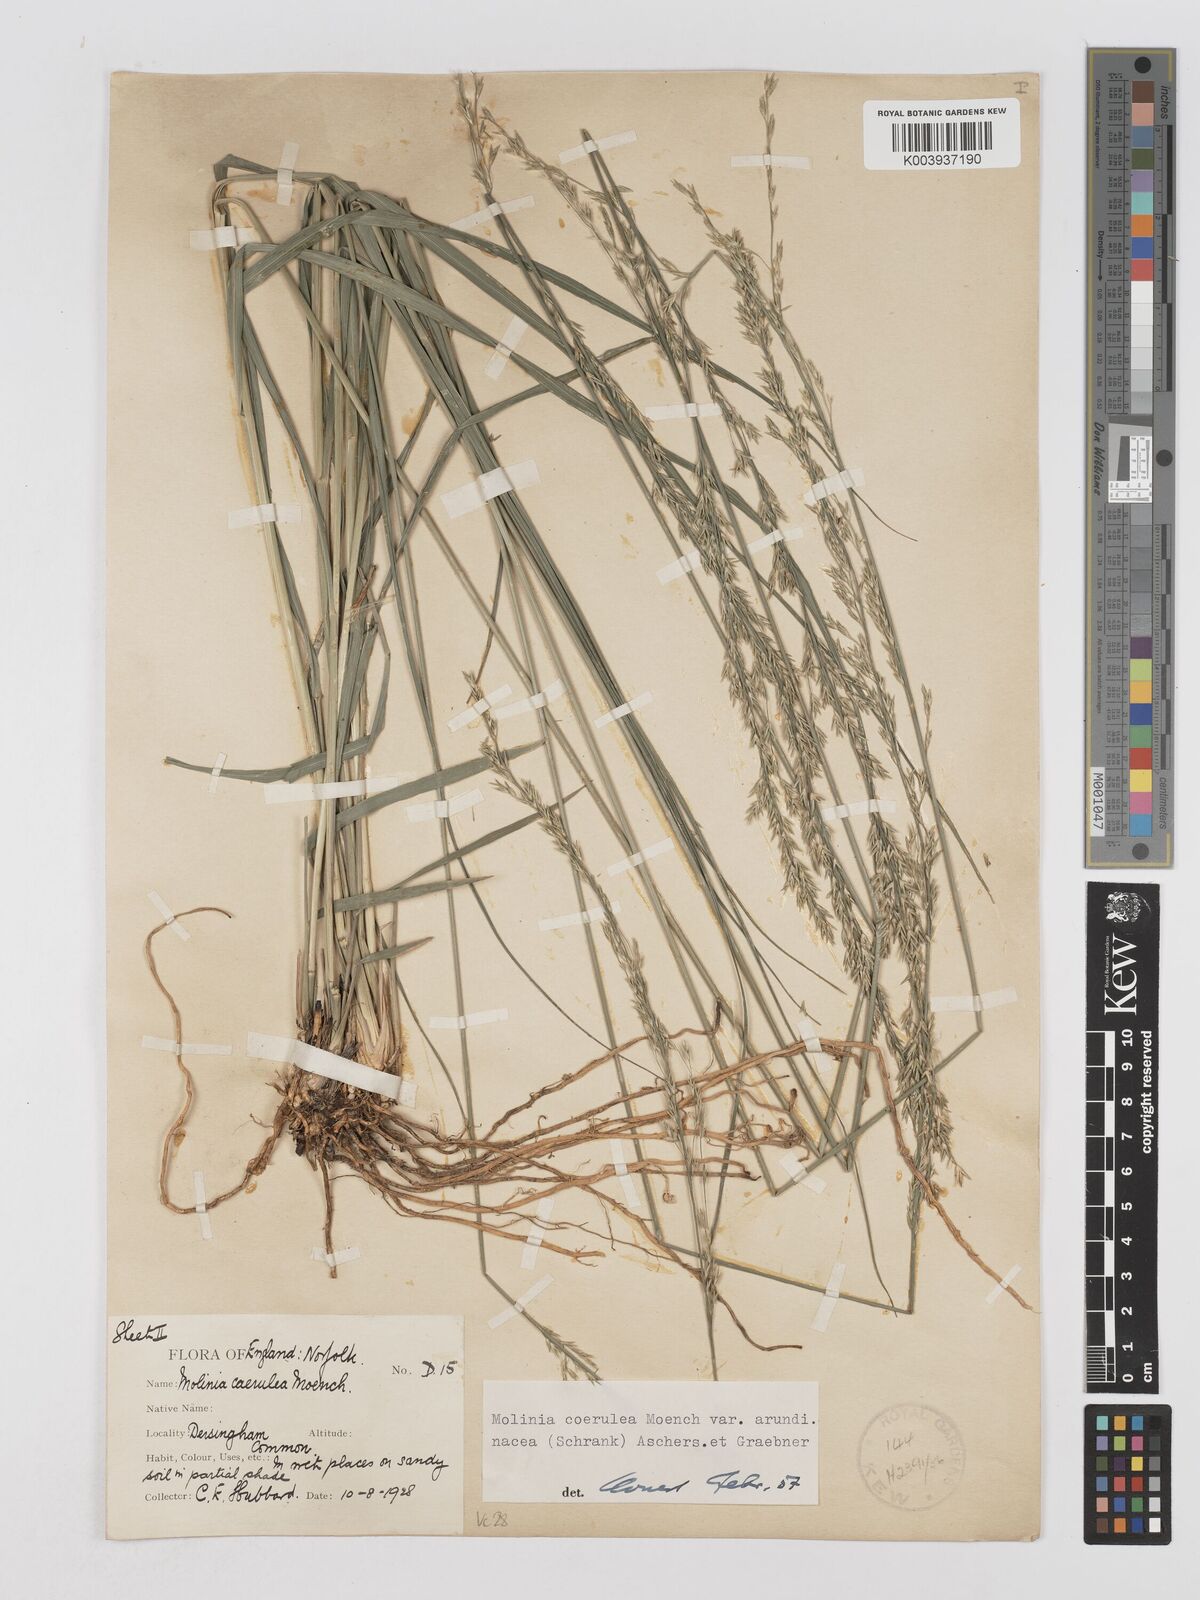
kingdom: Plantae
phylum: Tracheophyta
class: Liliopsida
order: Poales
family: Poaceae
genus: Molinia
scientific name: Molinia caerulea
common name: Purple moor-grass
